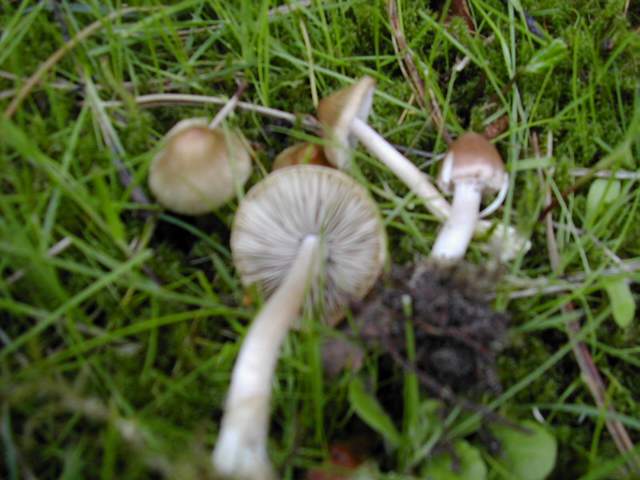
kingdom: Fungi
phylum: Basidiomycota
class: Agaricomycetes
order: Agaricales
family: Inocybaceae
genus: Inocybe
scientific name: Inocybe
